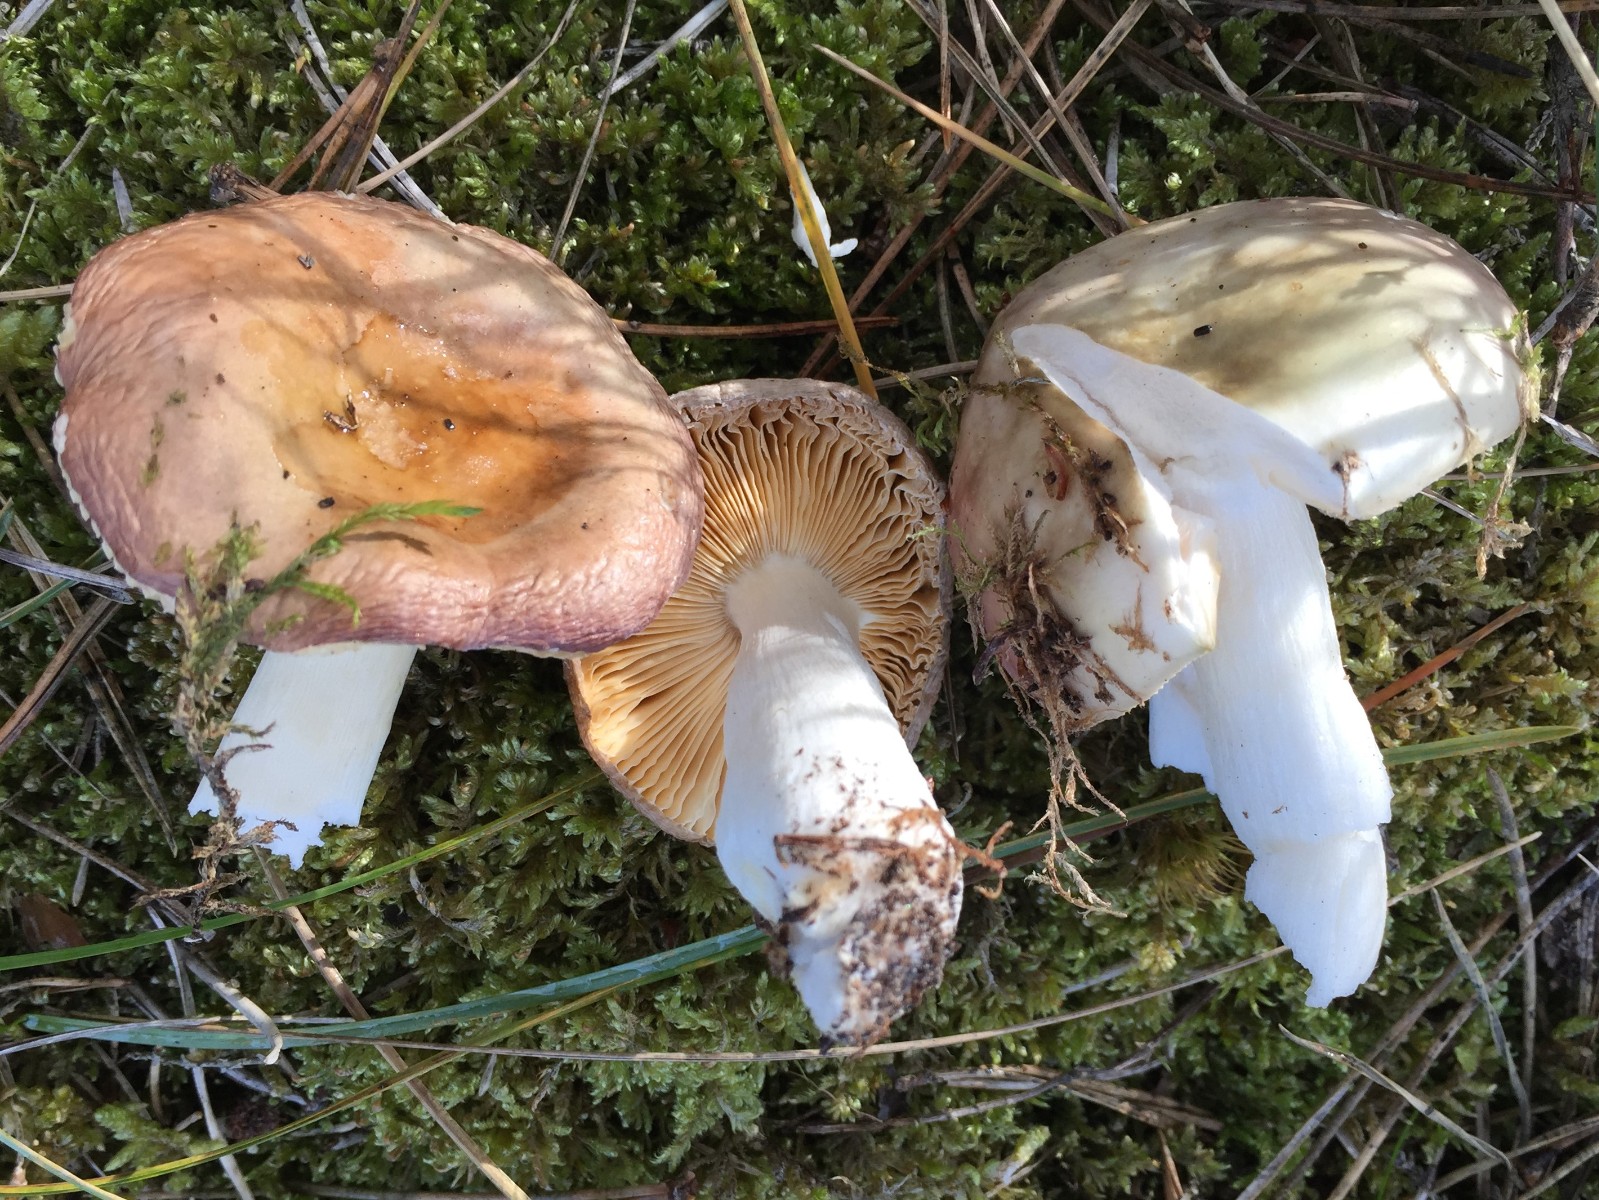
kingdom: Fungi
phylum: Basidiomycota
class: Agaricomycetes
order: Russulales
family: Russulaceae
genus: Russula
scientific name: Russula cessans
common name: fyrre-skørhat
